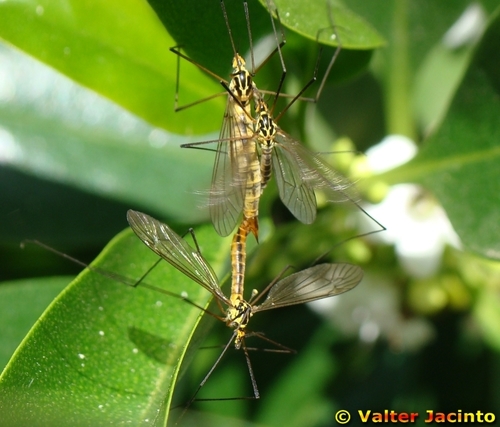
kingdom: Animalia
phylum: Arthropoda
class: Insecta
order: Diptera
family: Tipulidae
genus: Nephrotoma
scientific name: Nephrotoma cornicina
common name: Cranefly
